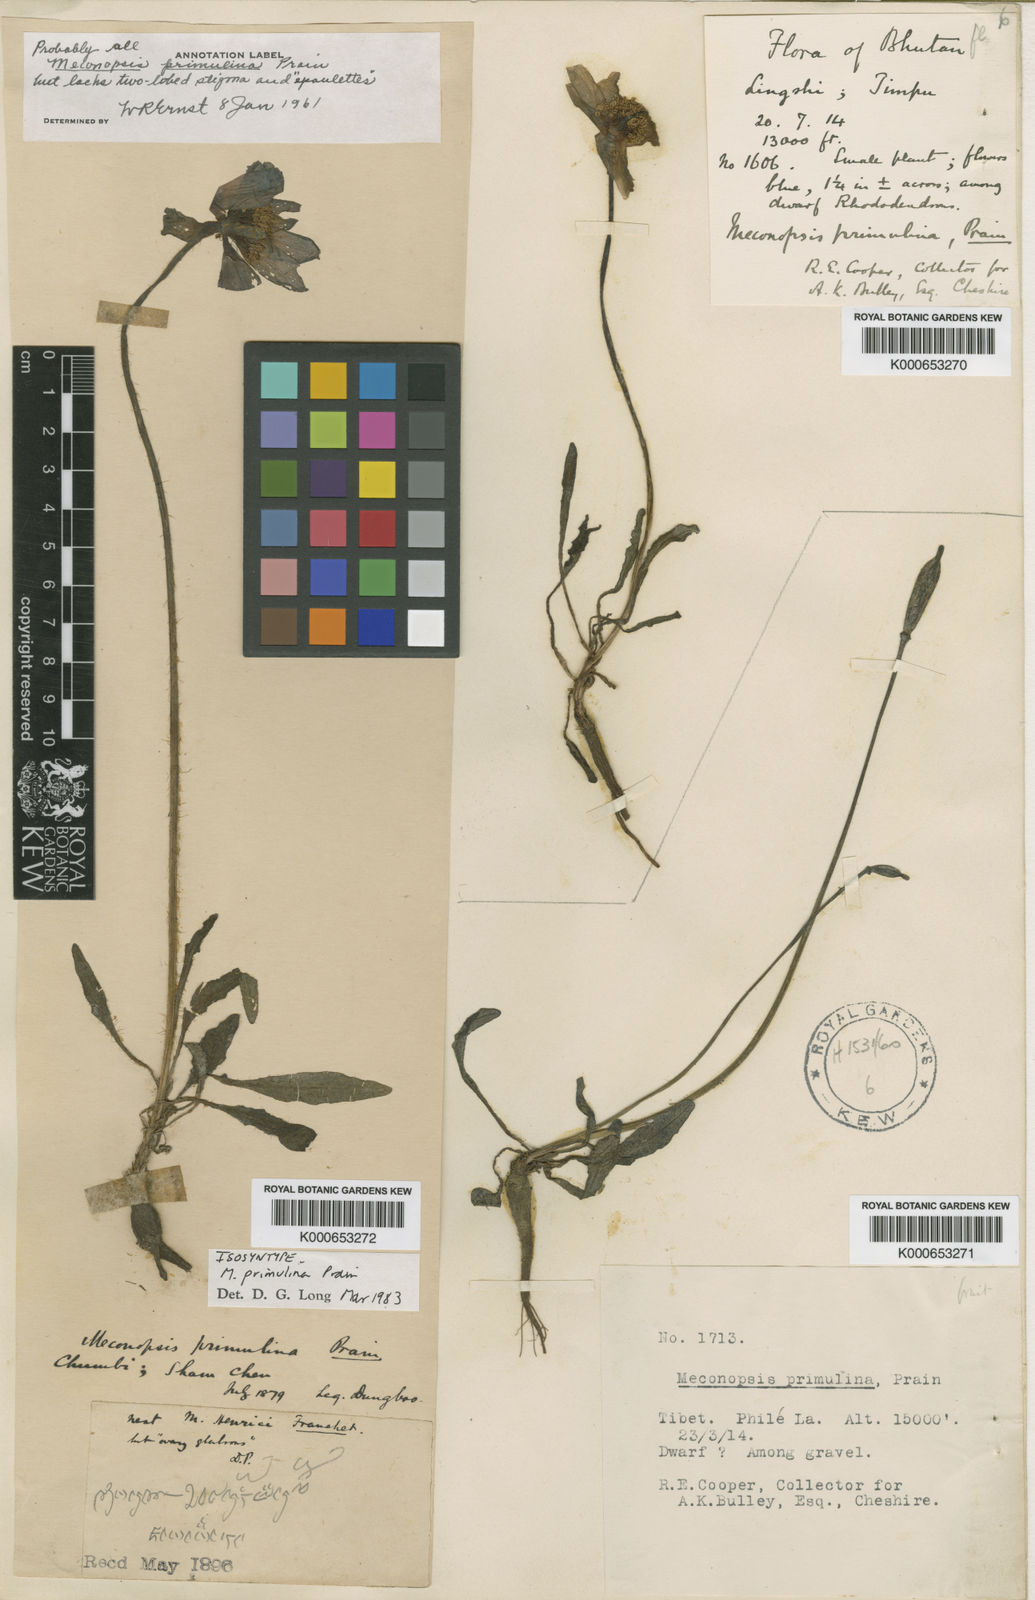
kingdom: Plantae
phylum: Tracheophyta
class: Magnoliopsida
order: Ranunculales
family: Papaveraceae
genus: Meconopsis
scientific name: Meconopsis primulina
